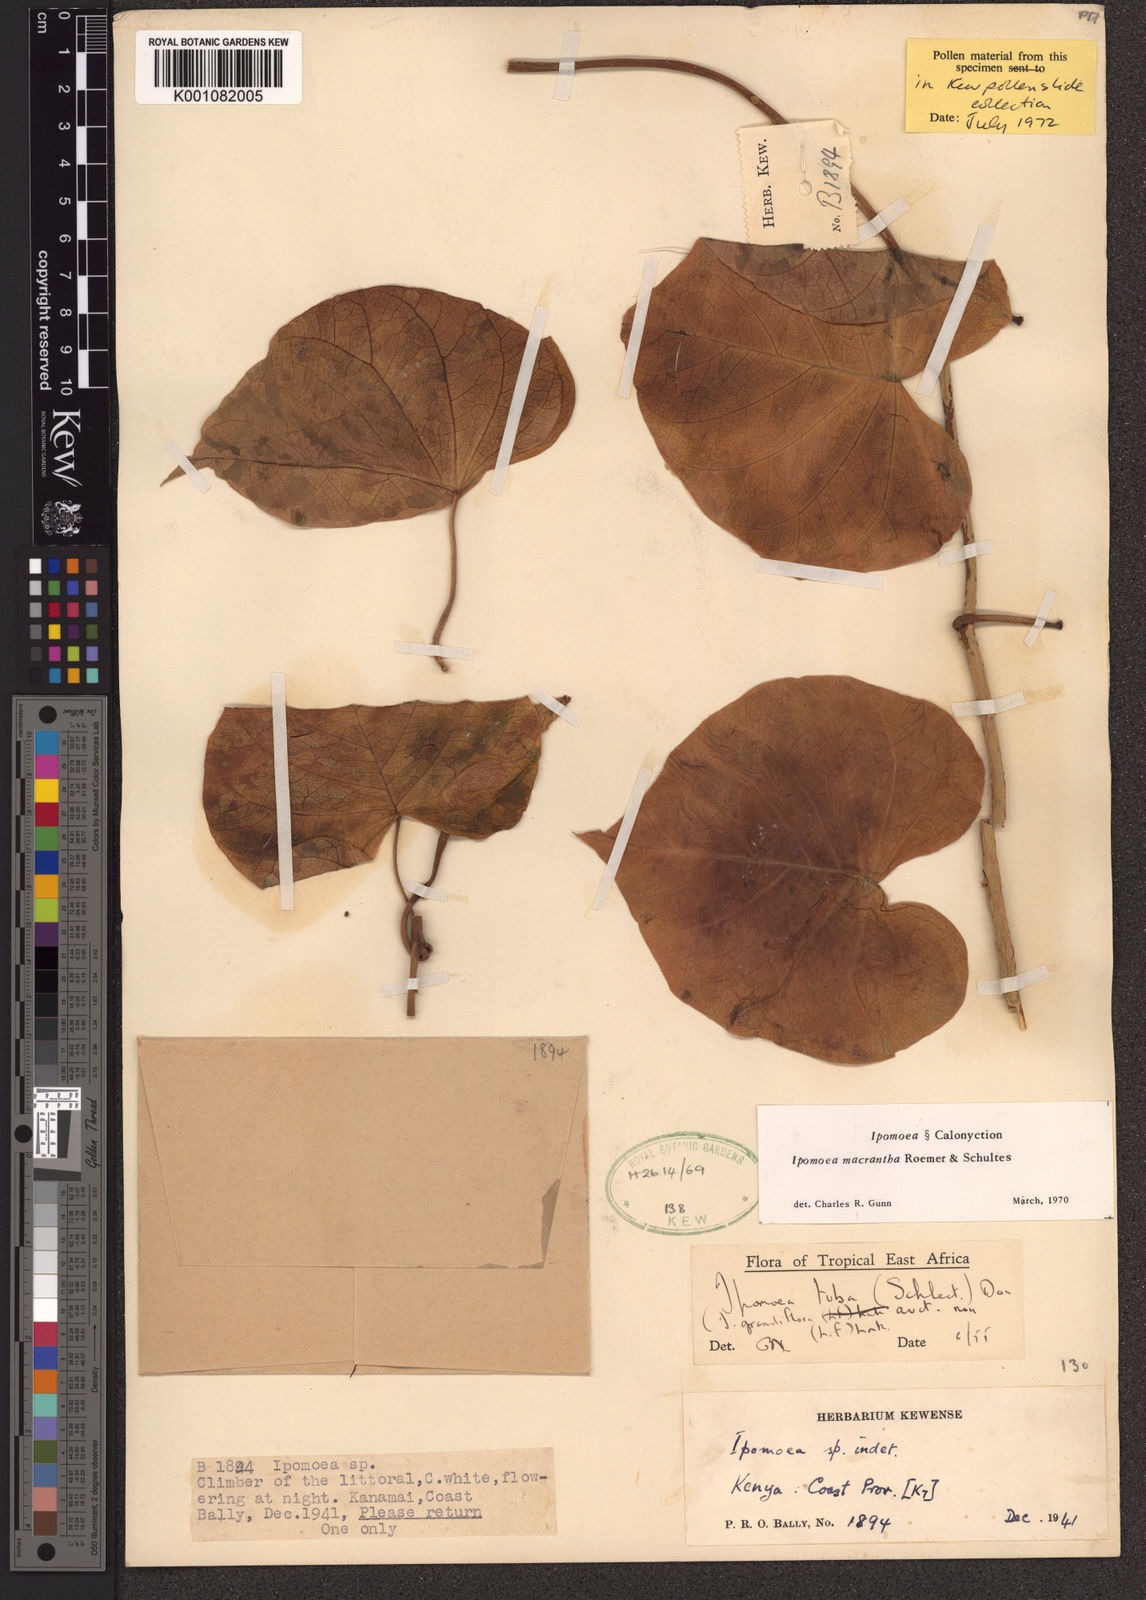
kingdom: Plantae
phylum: Tracheophyta
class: Magnoliopsida
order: Solanales
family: Convolvulaceae
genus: Ipomoea
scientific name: Ipomoea violacea
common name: Beach moonflower
